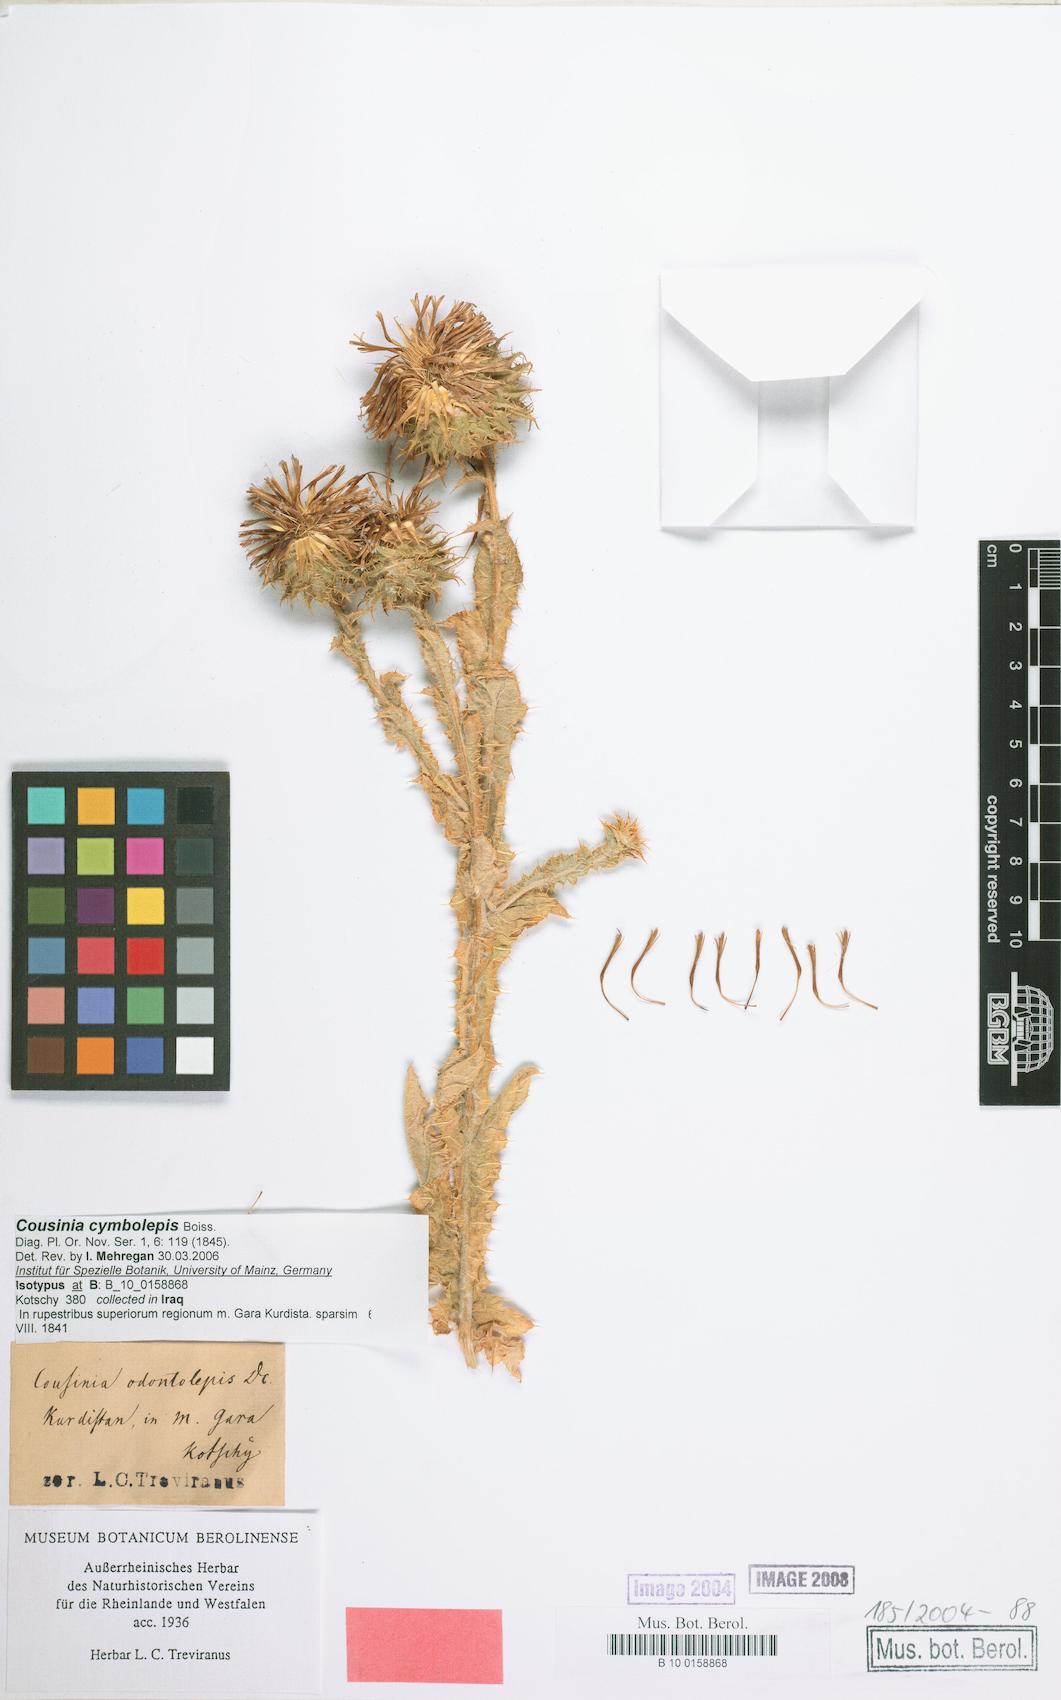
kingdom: Plantae
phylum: Tracheophyta
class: Magnoliopsida
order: Asterales
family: Asteraceae
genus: Cousinia
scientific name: Cousinia odontolepis
